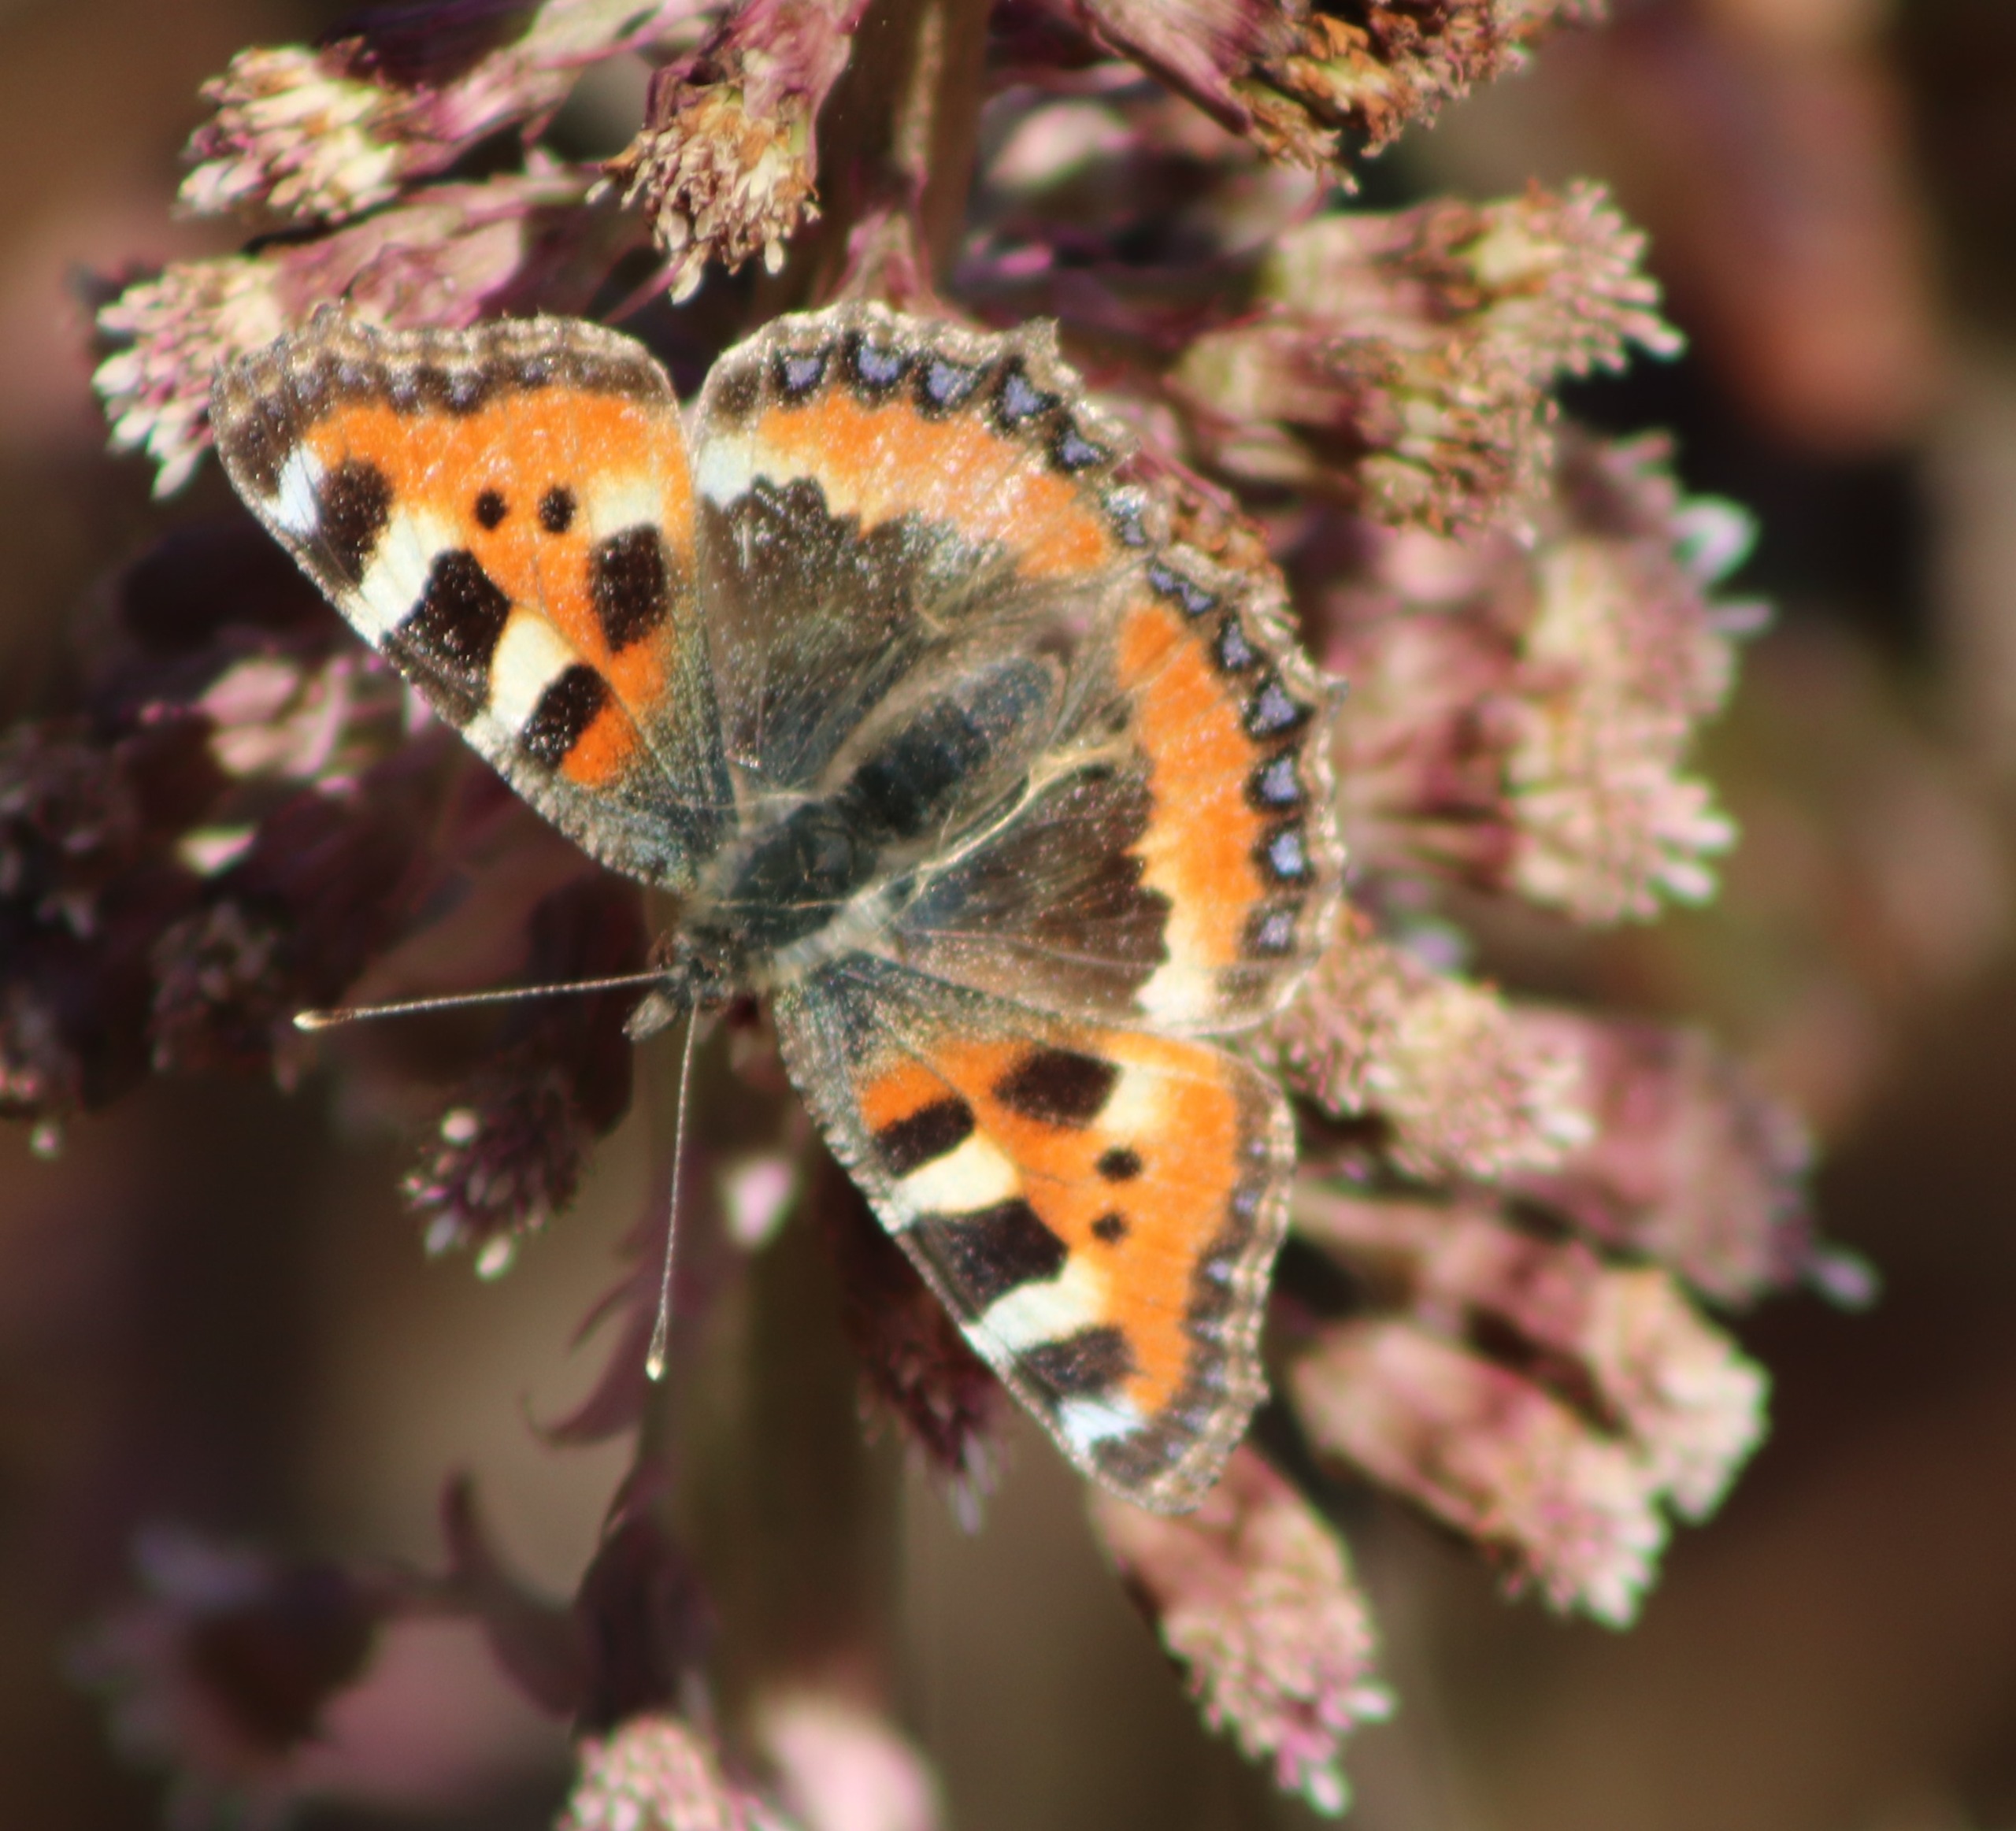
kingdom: Animalia
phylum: Arthropoda
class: Insecta
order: Lepidoptera
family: Nymphalidae
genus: Aglais
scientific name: Aglais urticae
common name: Nældens takvinge
